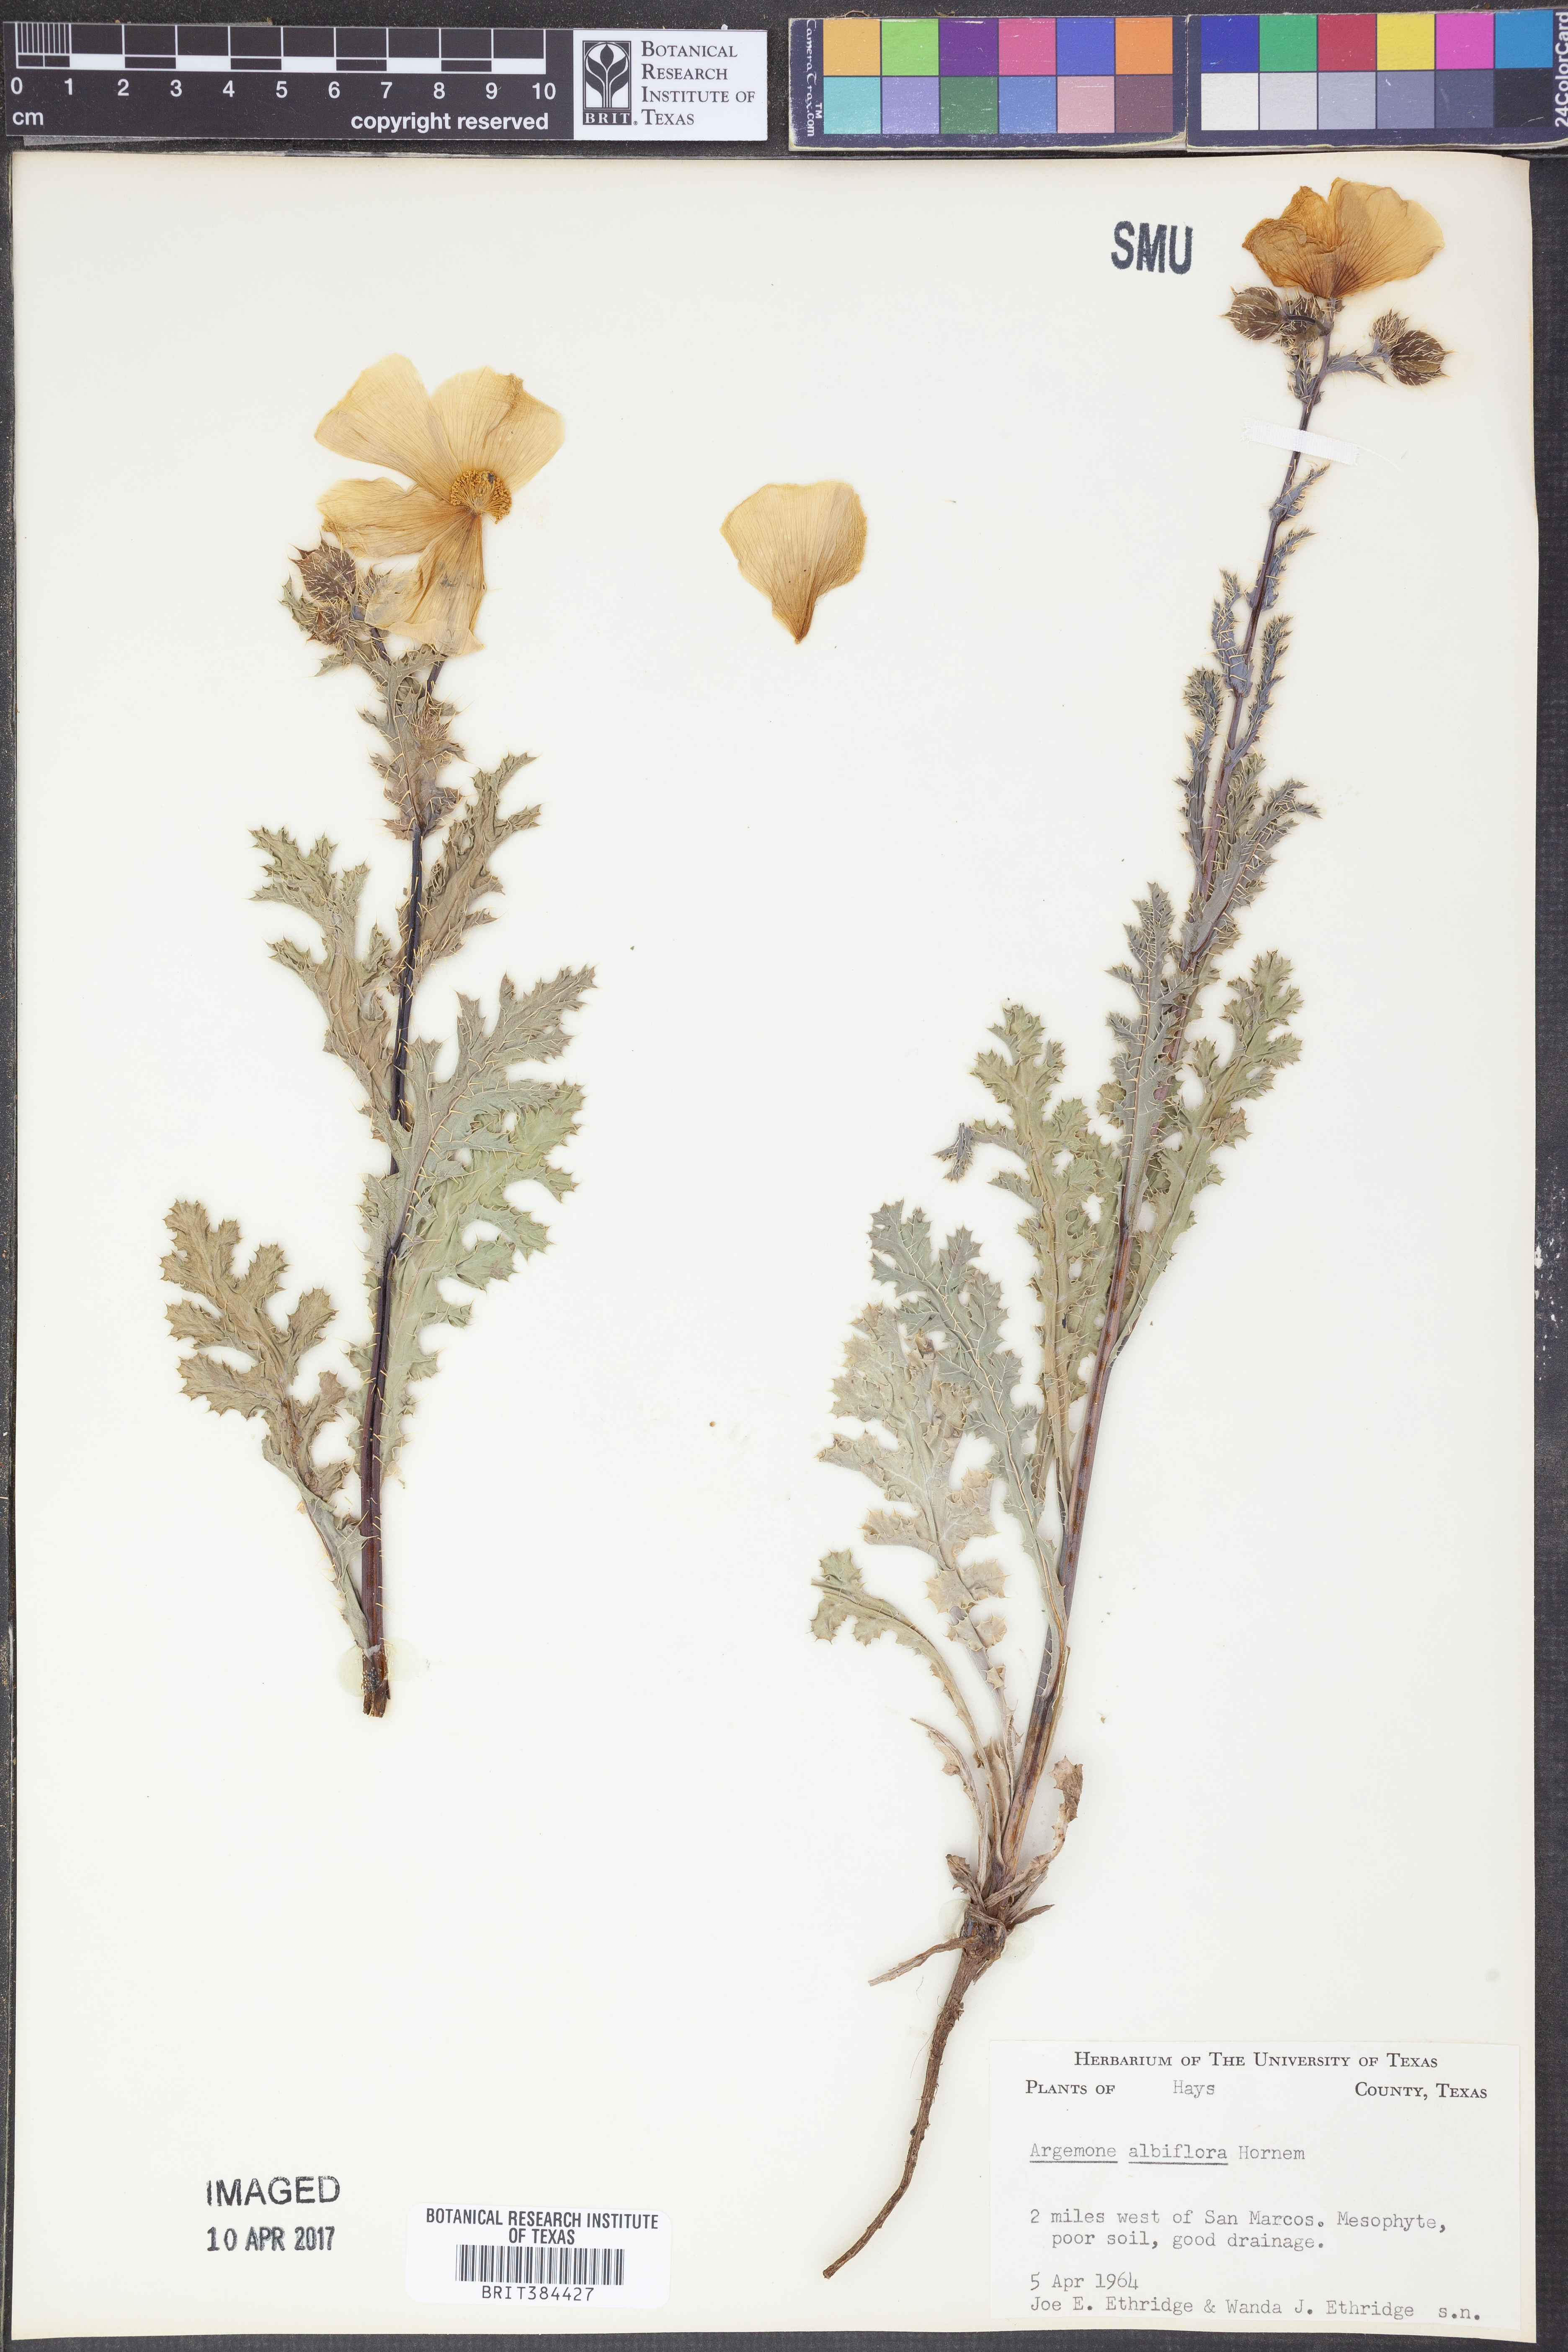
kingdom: Plantae
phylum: Tracheophyta
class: Magnoliopsida
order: Ranunculales
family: Papaveraceae
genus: Argemone
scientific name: Argemone albiflora
